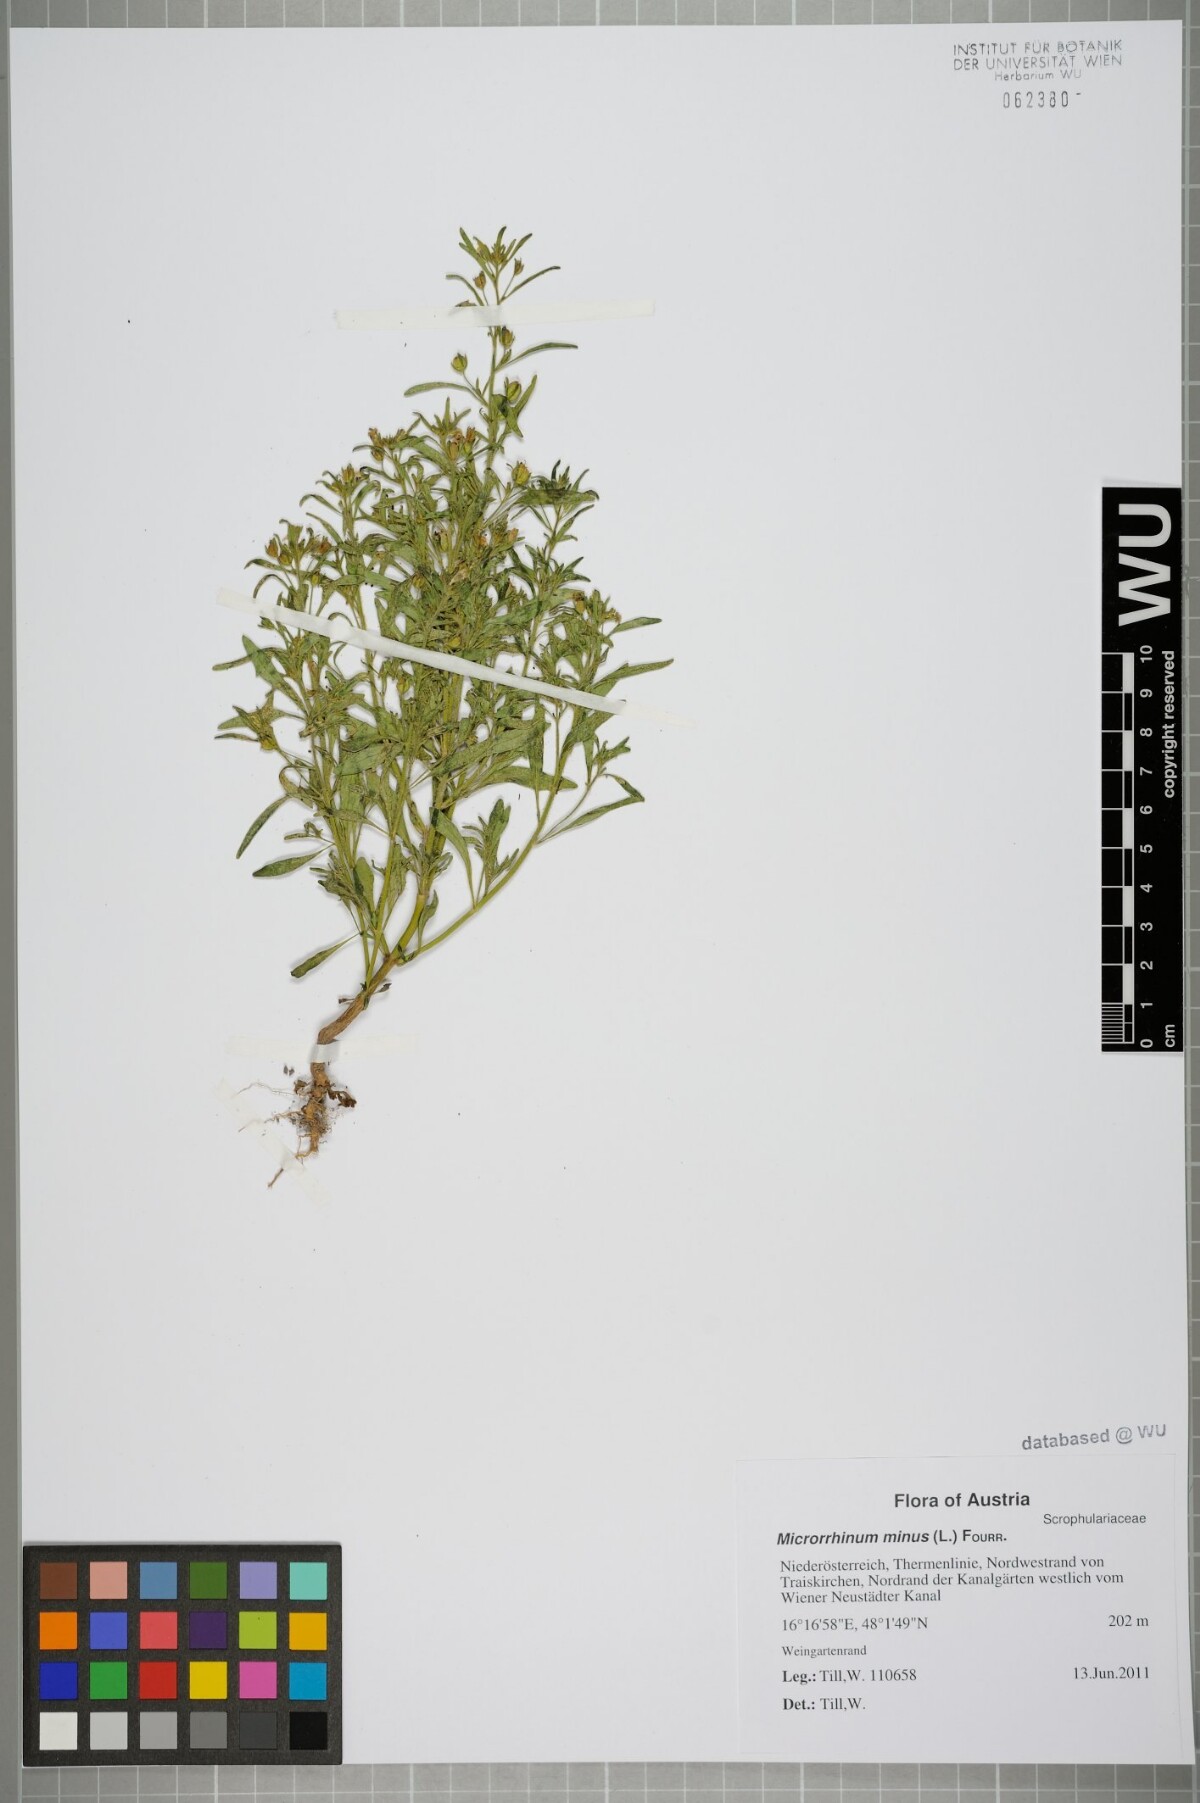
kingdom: Plantae
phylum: Tracheophyta
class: Magnoliopsida
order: Lamiales
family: Plantaginaceae
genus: Chaenorhinum
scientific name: Chaenorhinum minus
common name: Dwarf snapdragon
